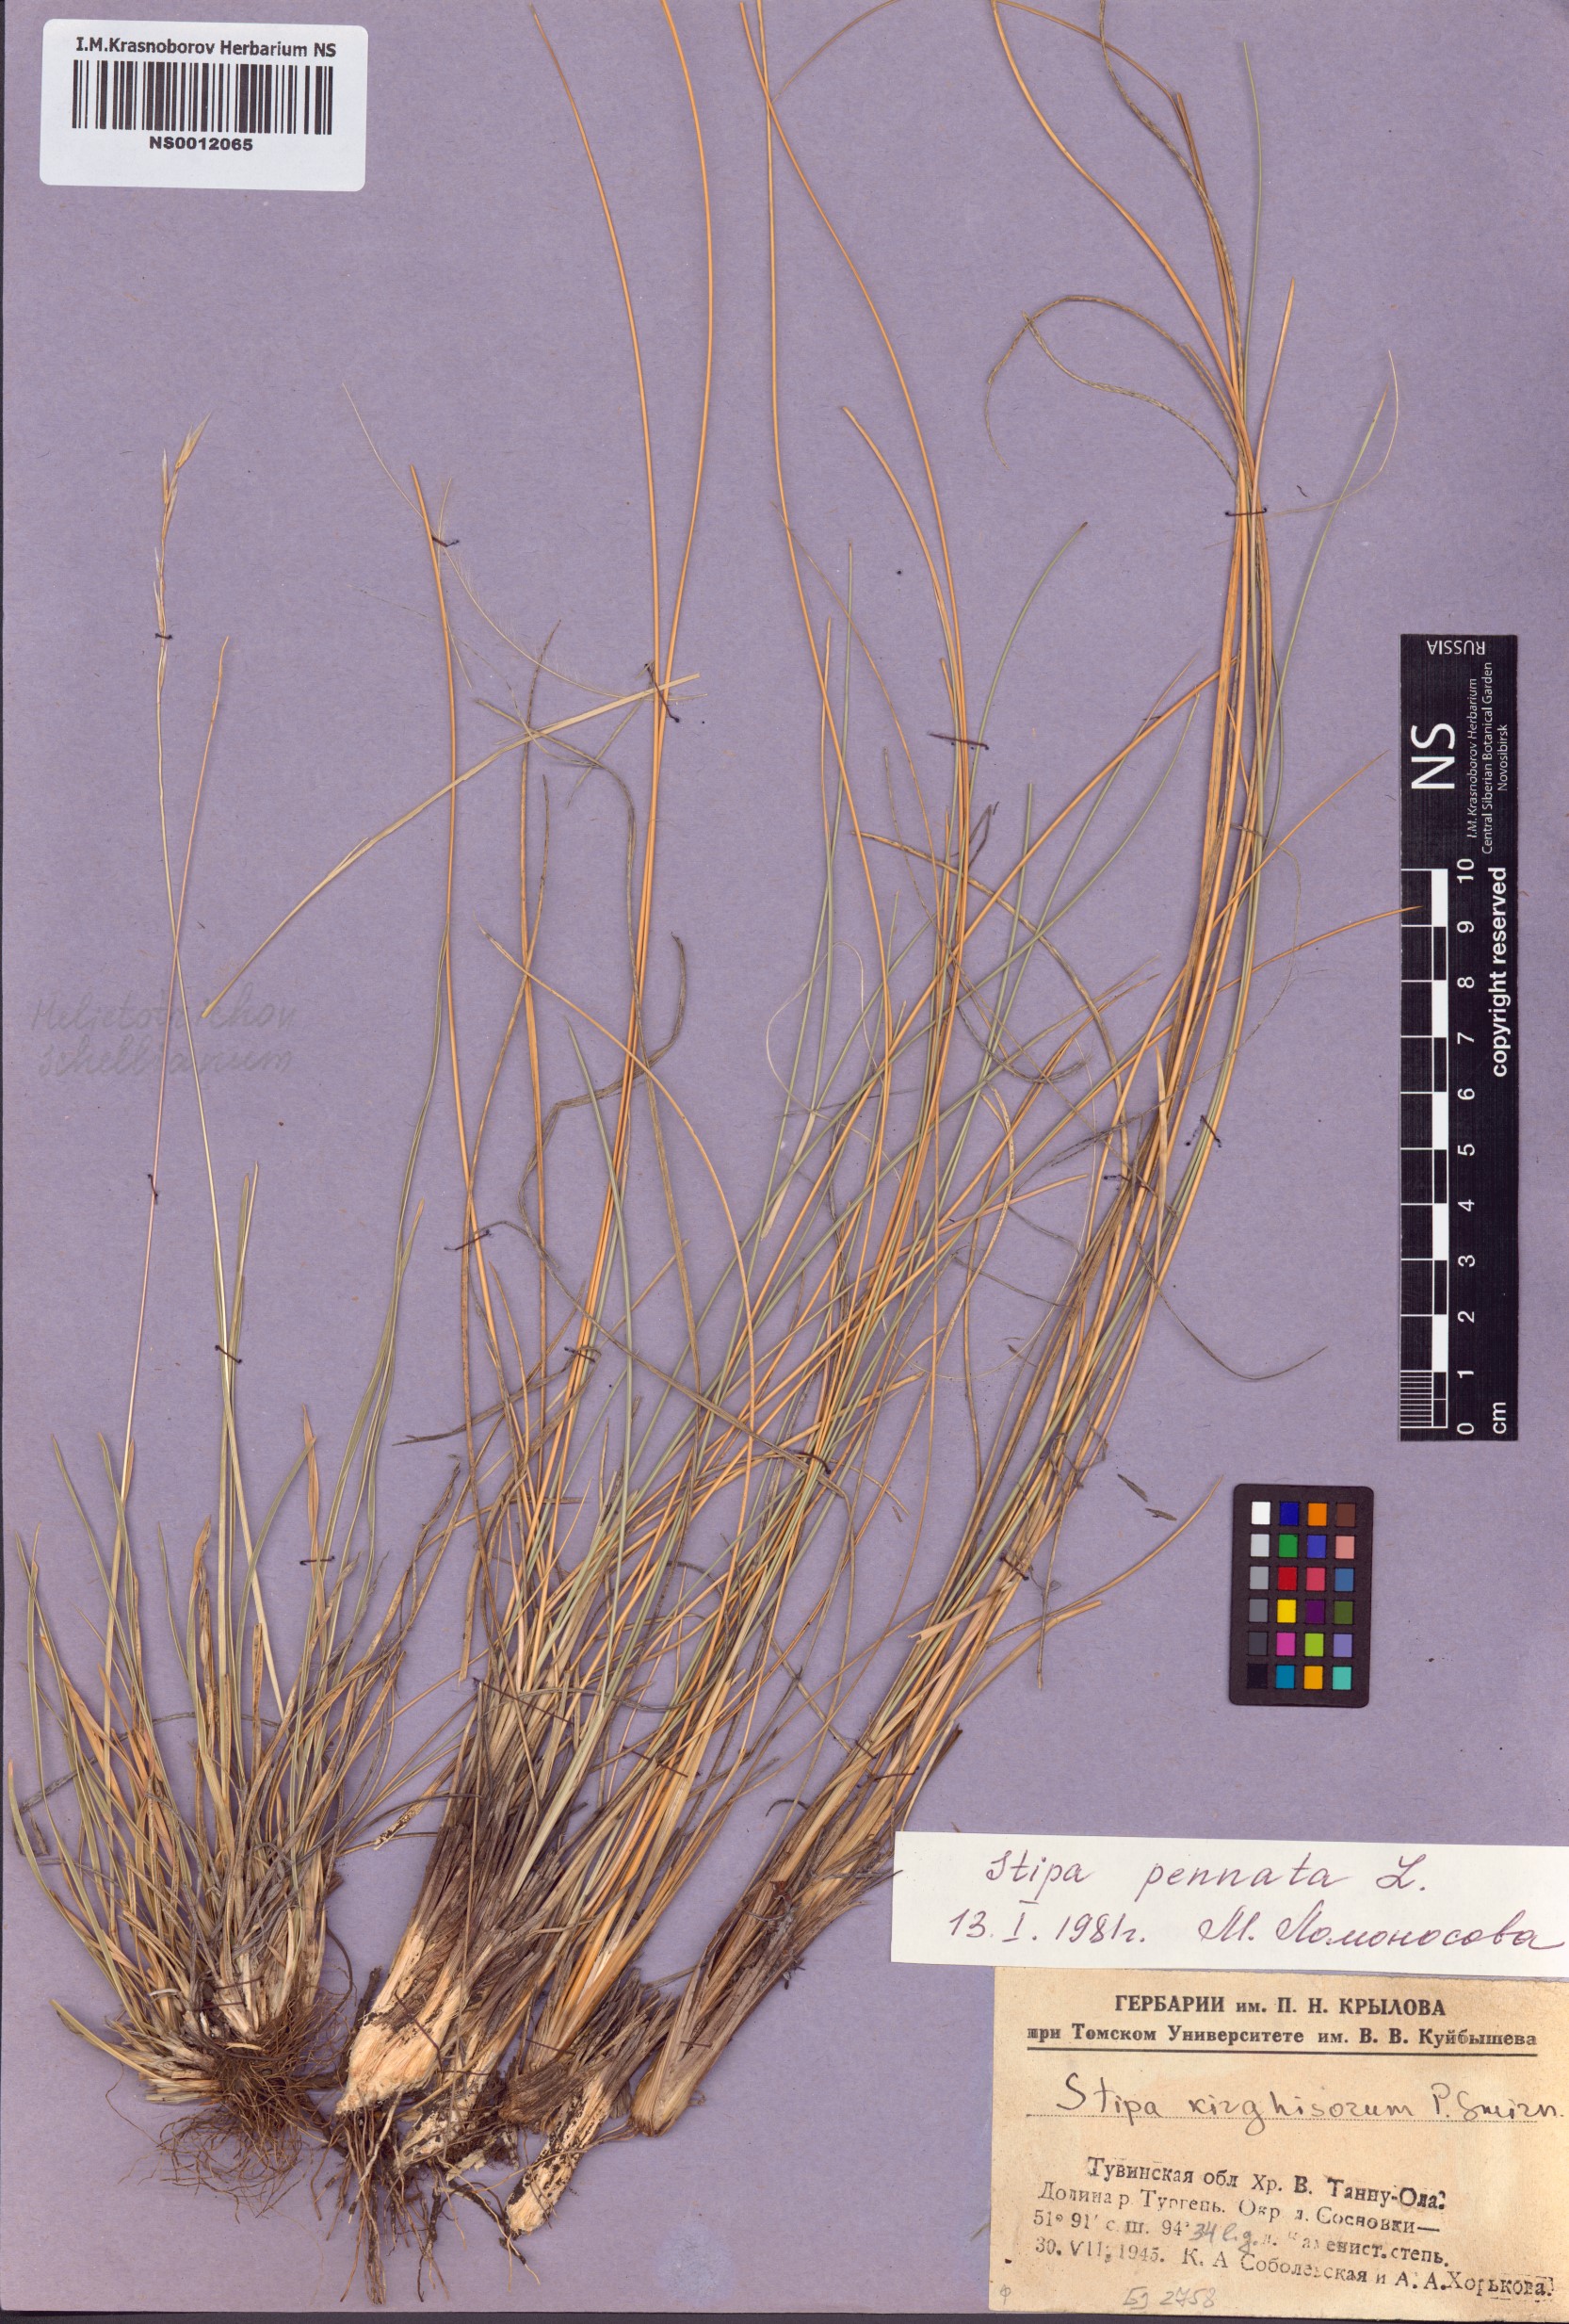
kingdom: Plantae
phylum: Tracheophyta
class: Liliopsida
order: Poales
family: Poaceae
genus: Stipa
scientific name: Stipa pennata
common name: European feather grass
